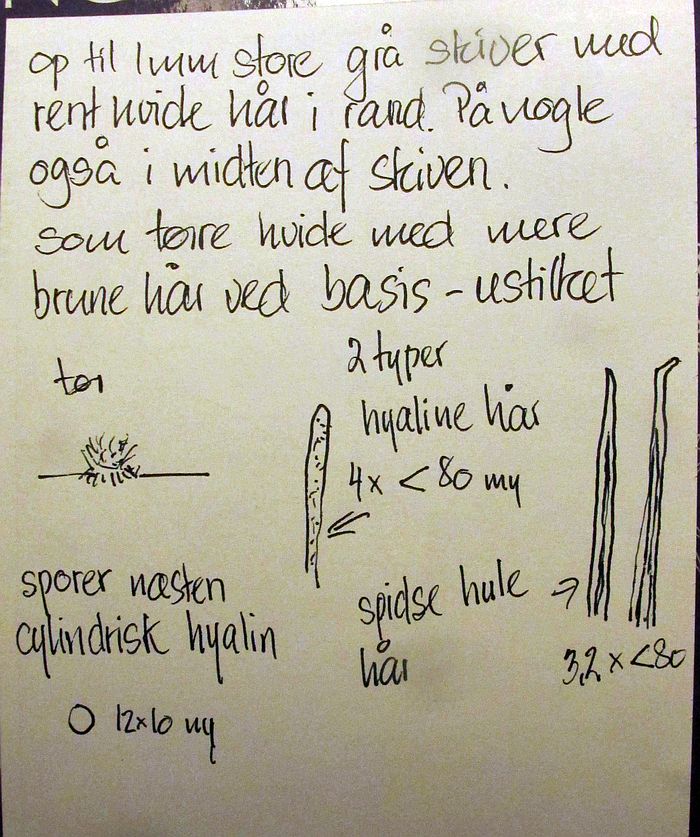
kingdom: Fungi
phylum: Basidiomycota
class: Agaricomycetes
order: Agaricales
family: Niaceae
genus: Lachnella
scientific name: Lachnella alboviolascens
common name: grå frynserede
